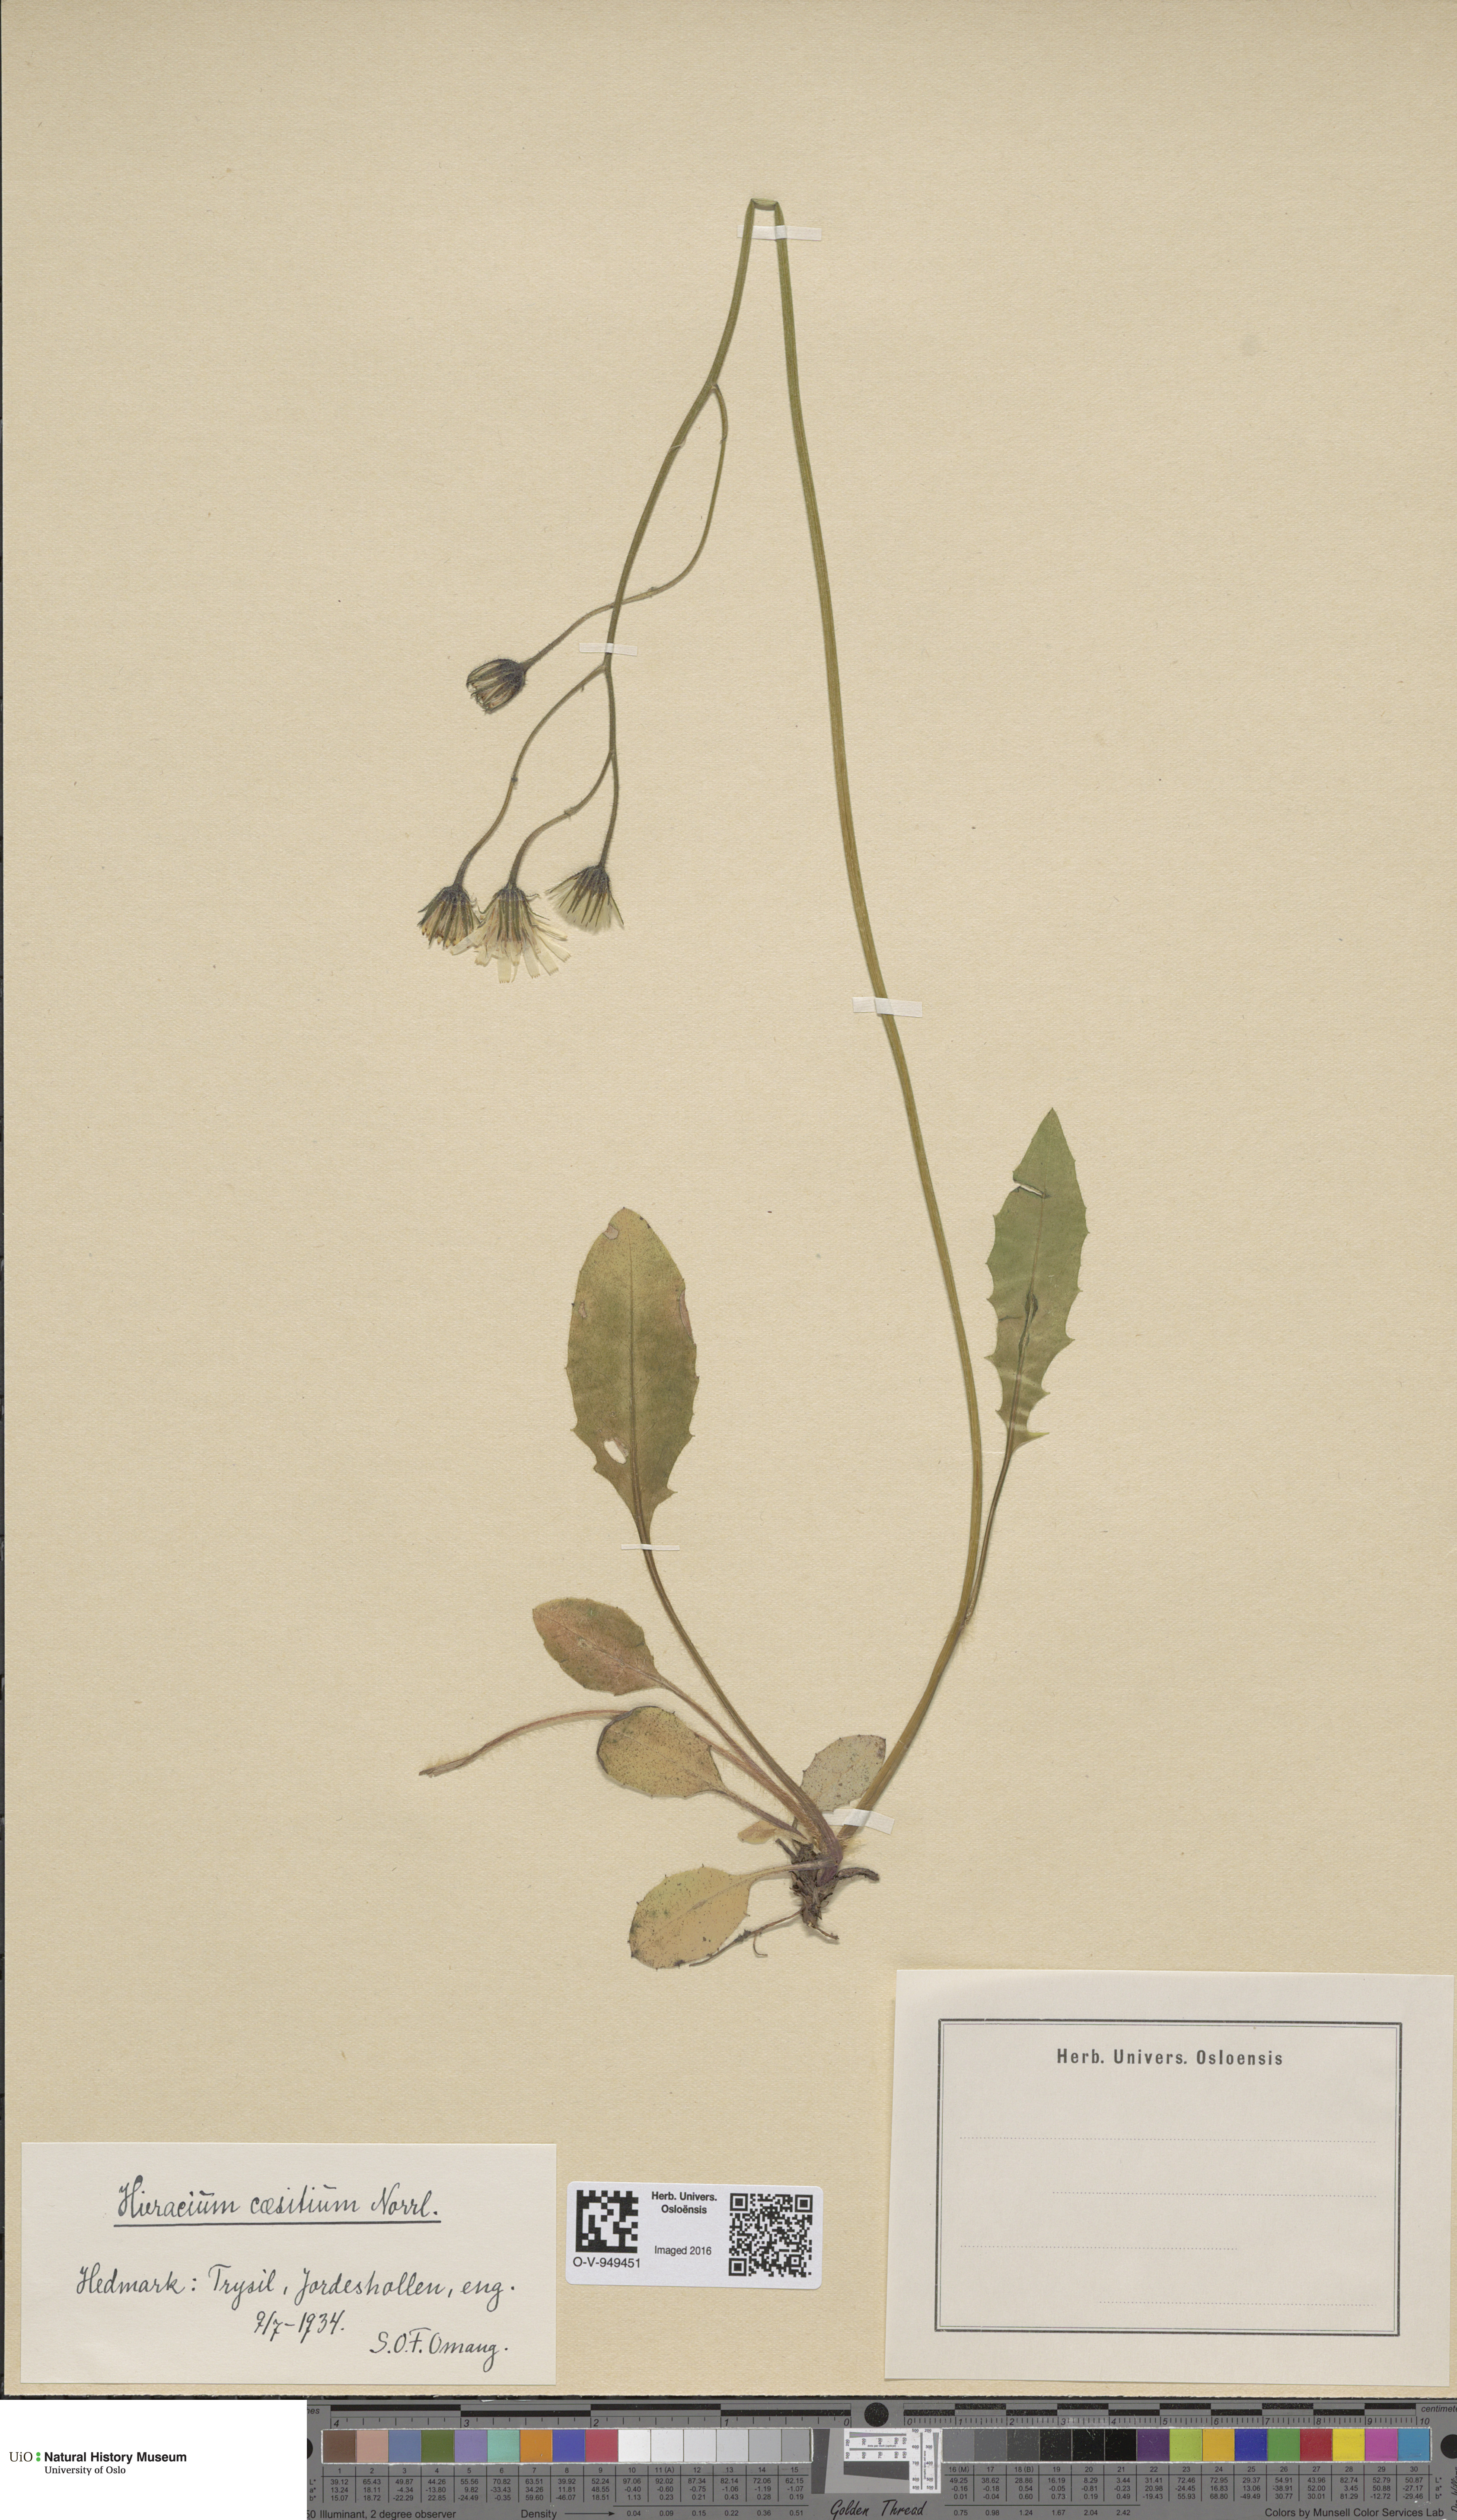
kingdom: Plantae
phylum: Tracheophyta
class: Magnoliopsida
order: Asterales
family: Asteraceae
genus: Hieracium
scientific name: Hieracium christianense
